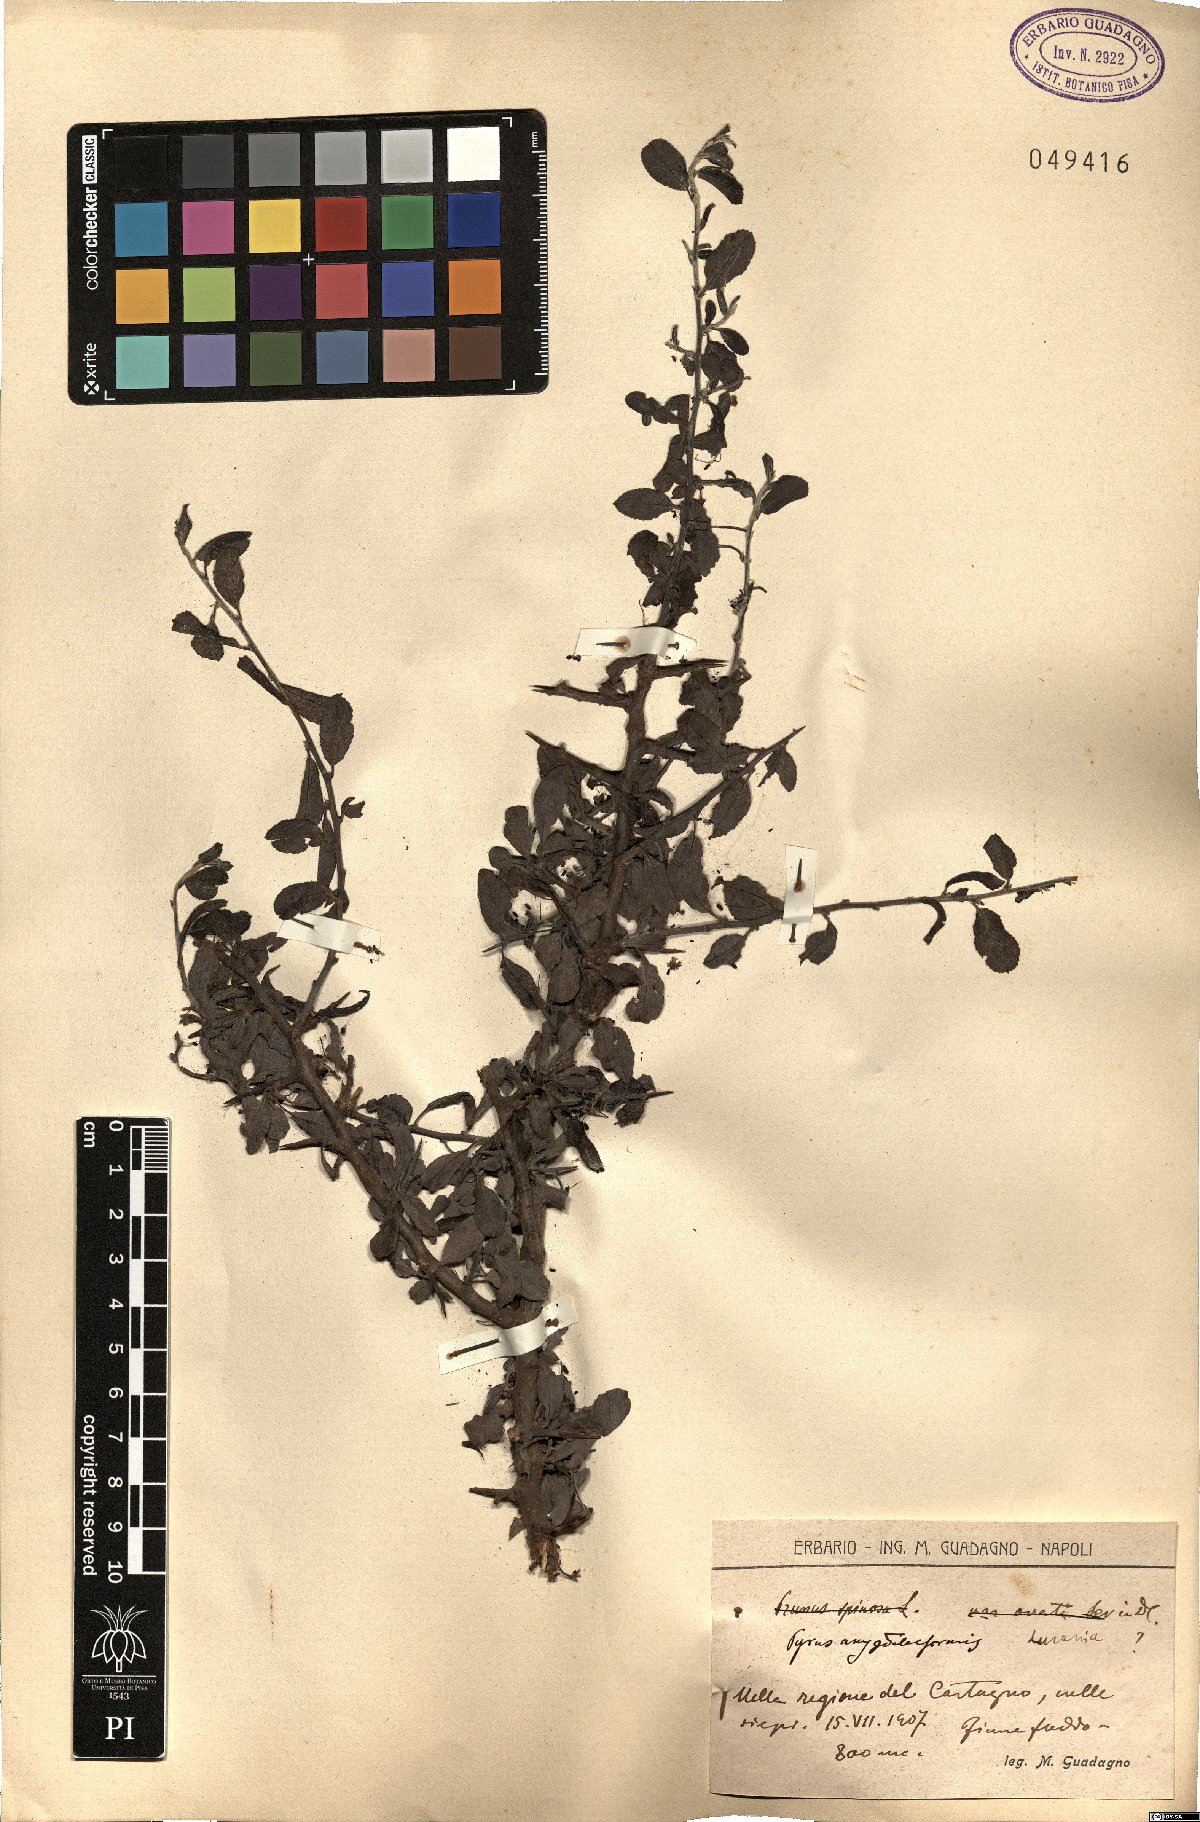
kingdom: Plantae
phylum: Tracheophyta
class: Magnoliopsida
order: Rosales
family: Rosaceae
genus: Pyrus
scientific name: Pyrus spinosa
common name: Almond-leaf pear
